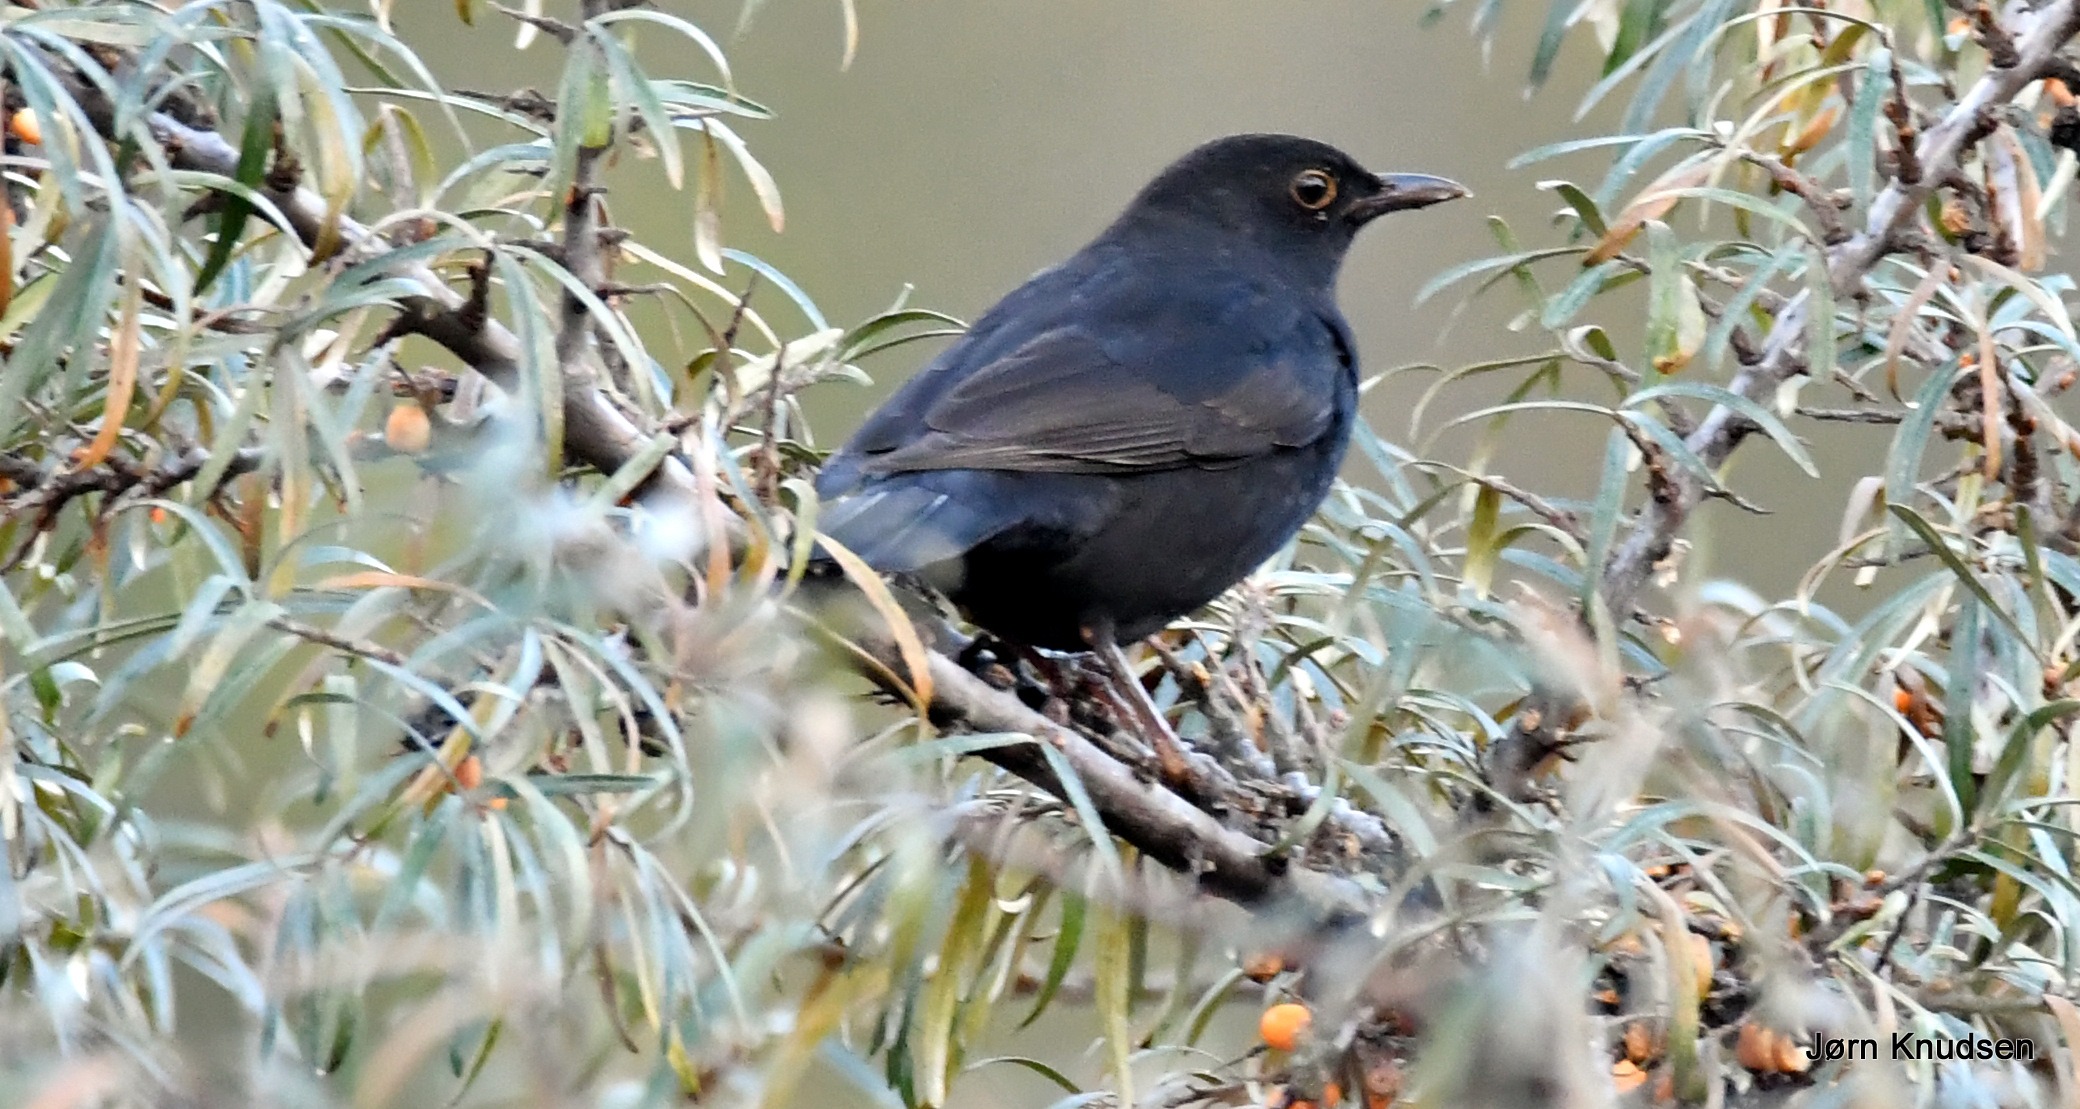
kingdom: Animalia
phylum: Chordata
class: Aves
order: Passeriformes
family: Turdidae
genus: Turdus
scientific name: Turdus merula
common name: Solsort
